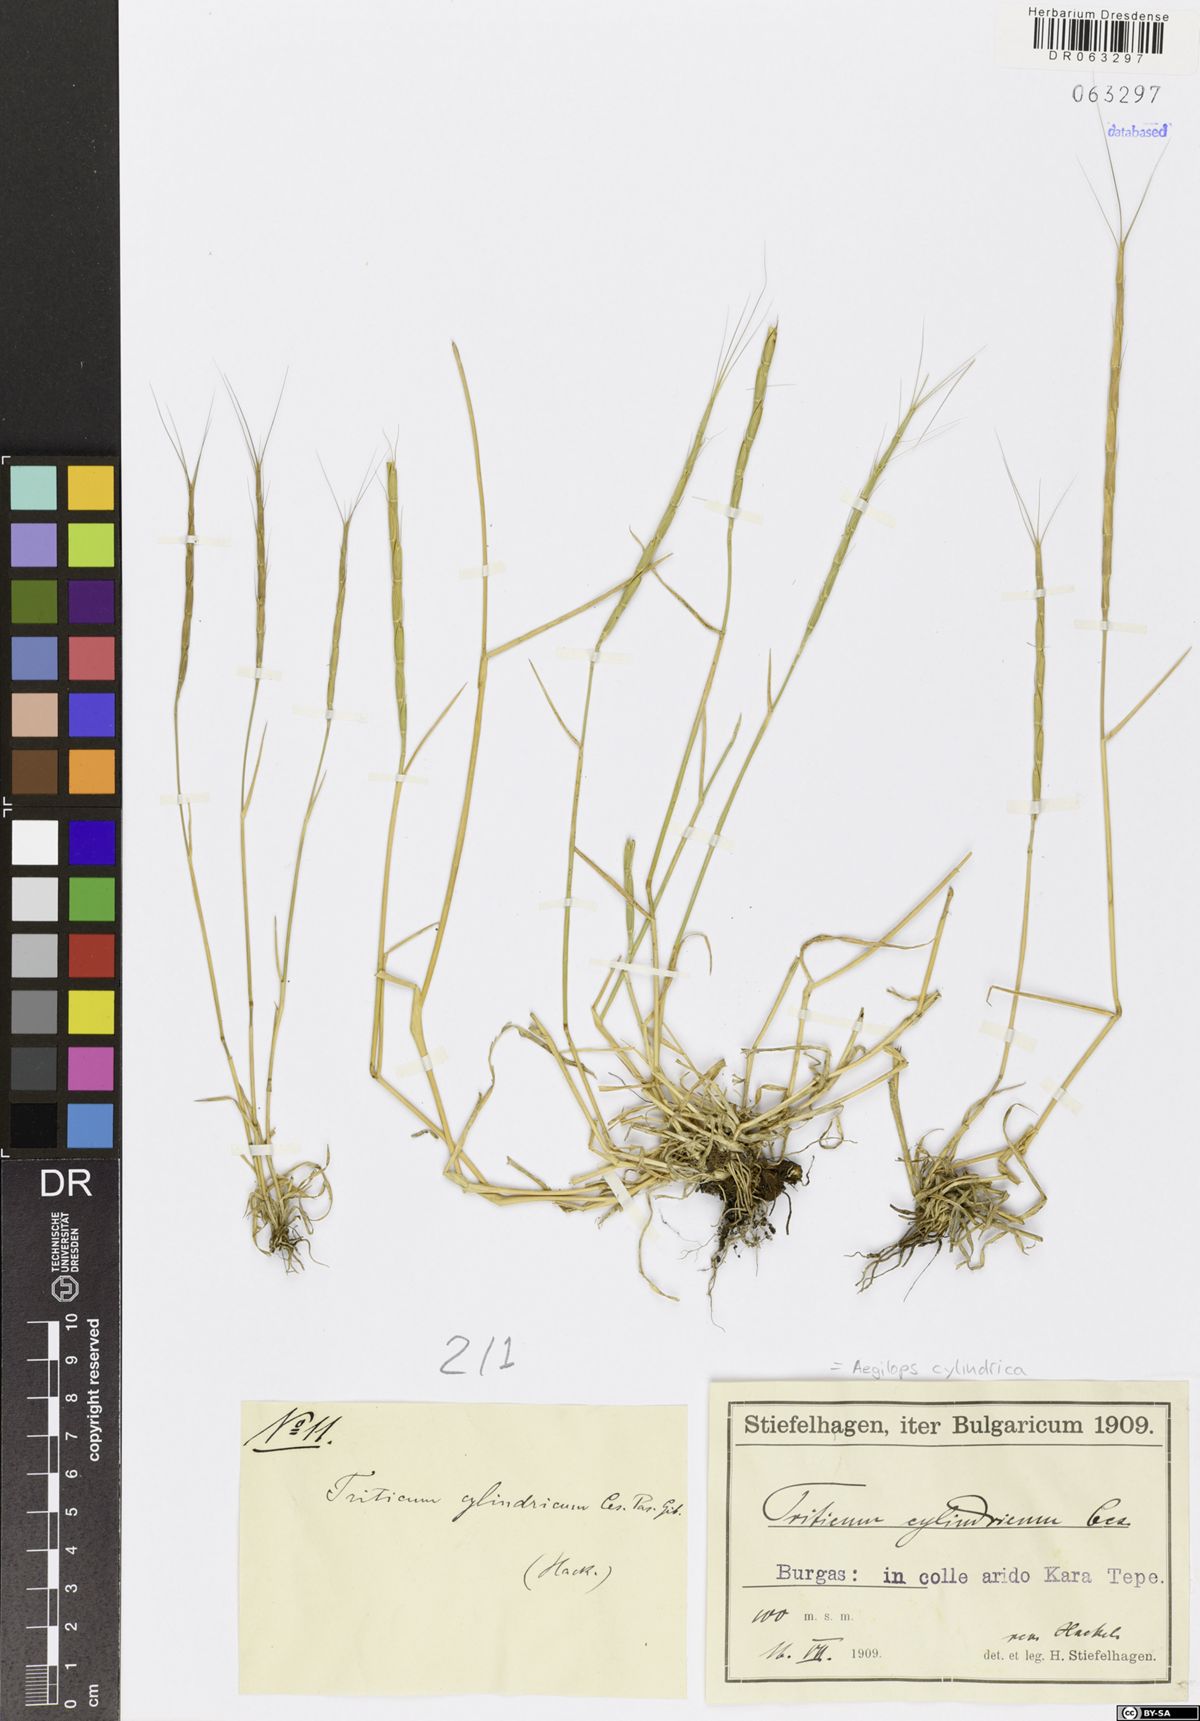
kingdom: Plantae
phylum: Tracheophyta
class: Liliopsida
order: Poales
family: Poaceae
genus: Aegilops
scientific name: Aegilops cylindrica
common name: Jointed goatgrass
